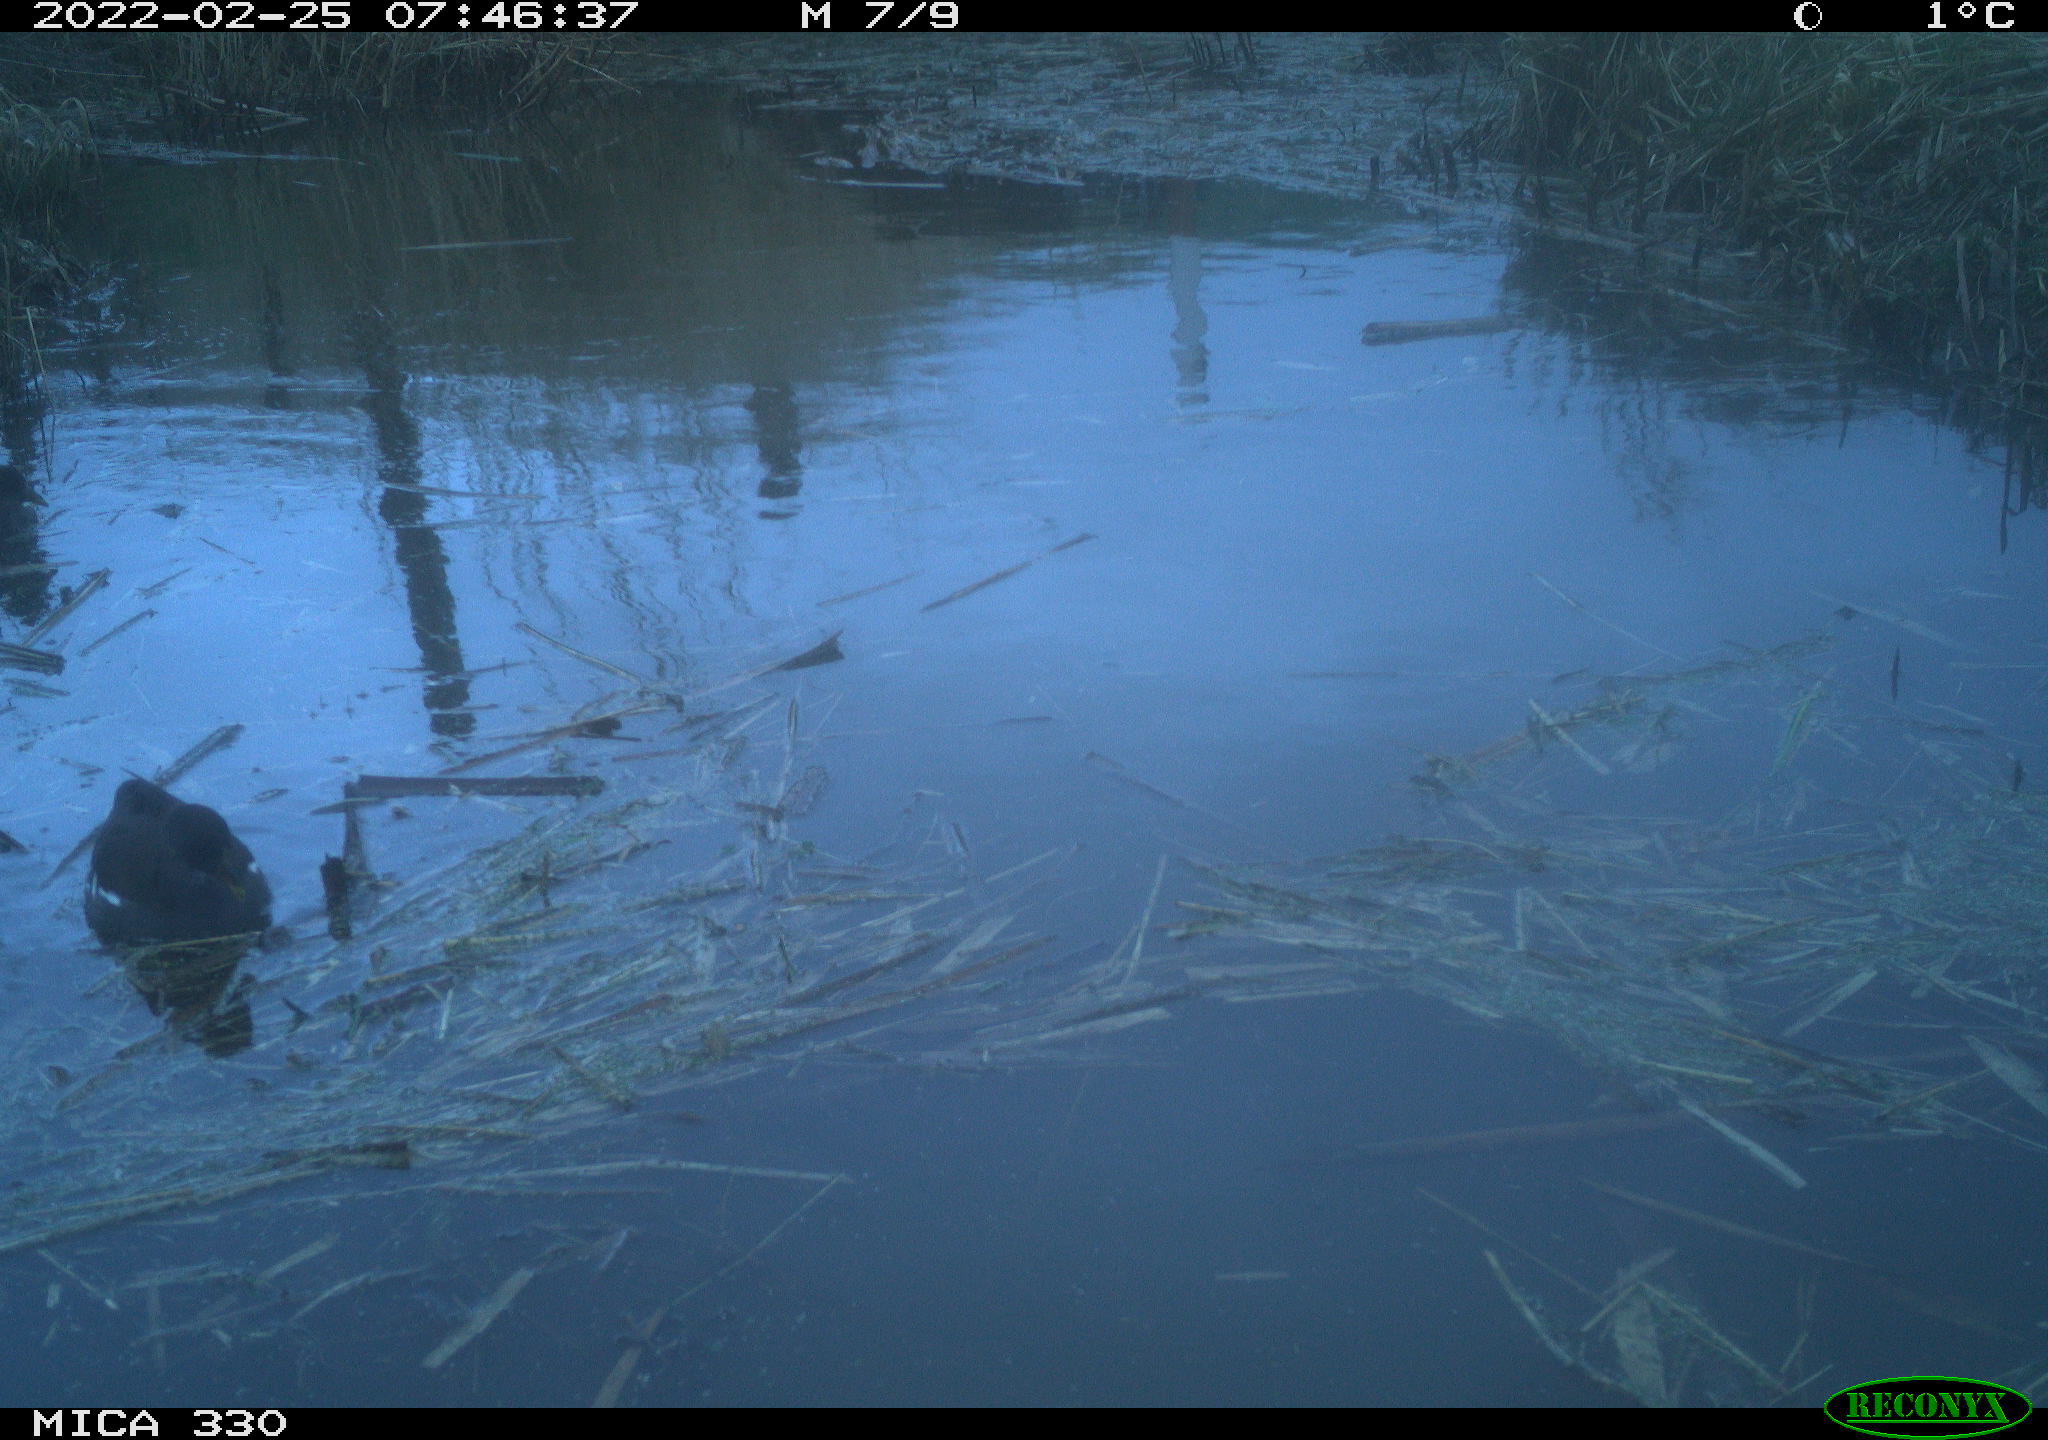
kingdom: Animalia
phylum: Chordata
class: Aves
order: Gruiformes
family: Rallidae
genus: Gallinula
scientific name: Gallinula chloropus
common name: Common moorhen
